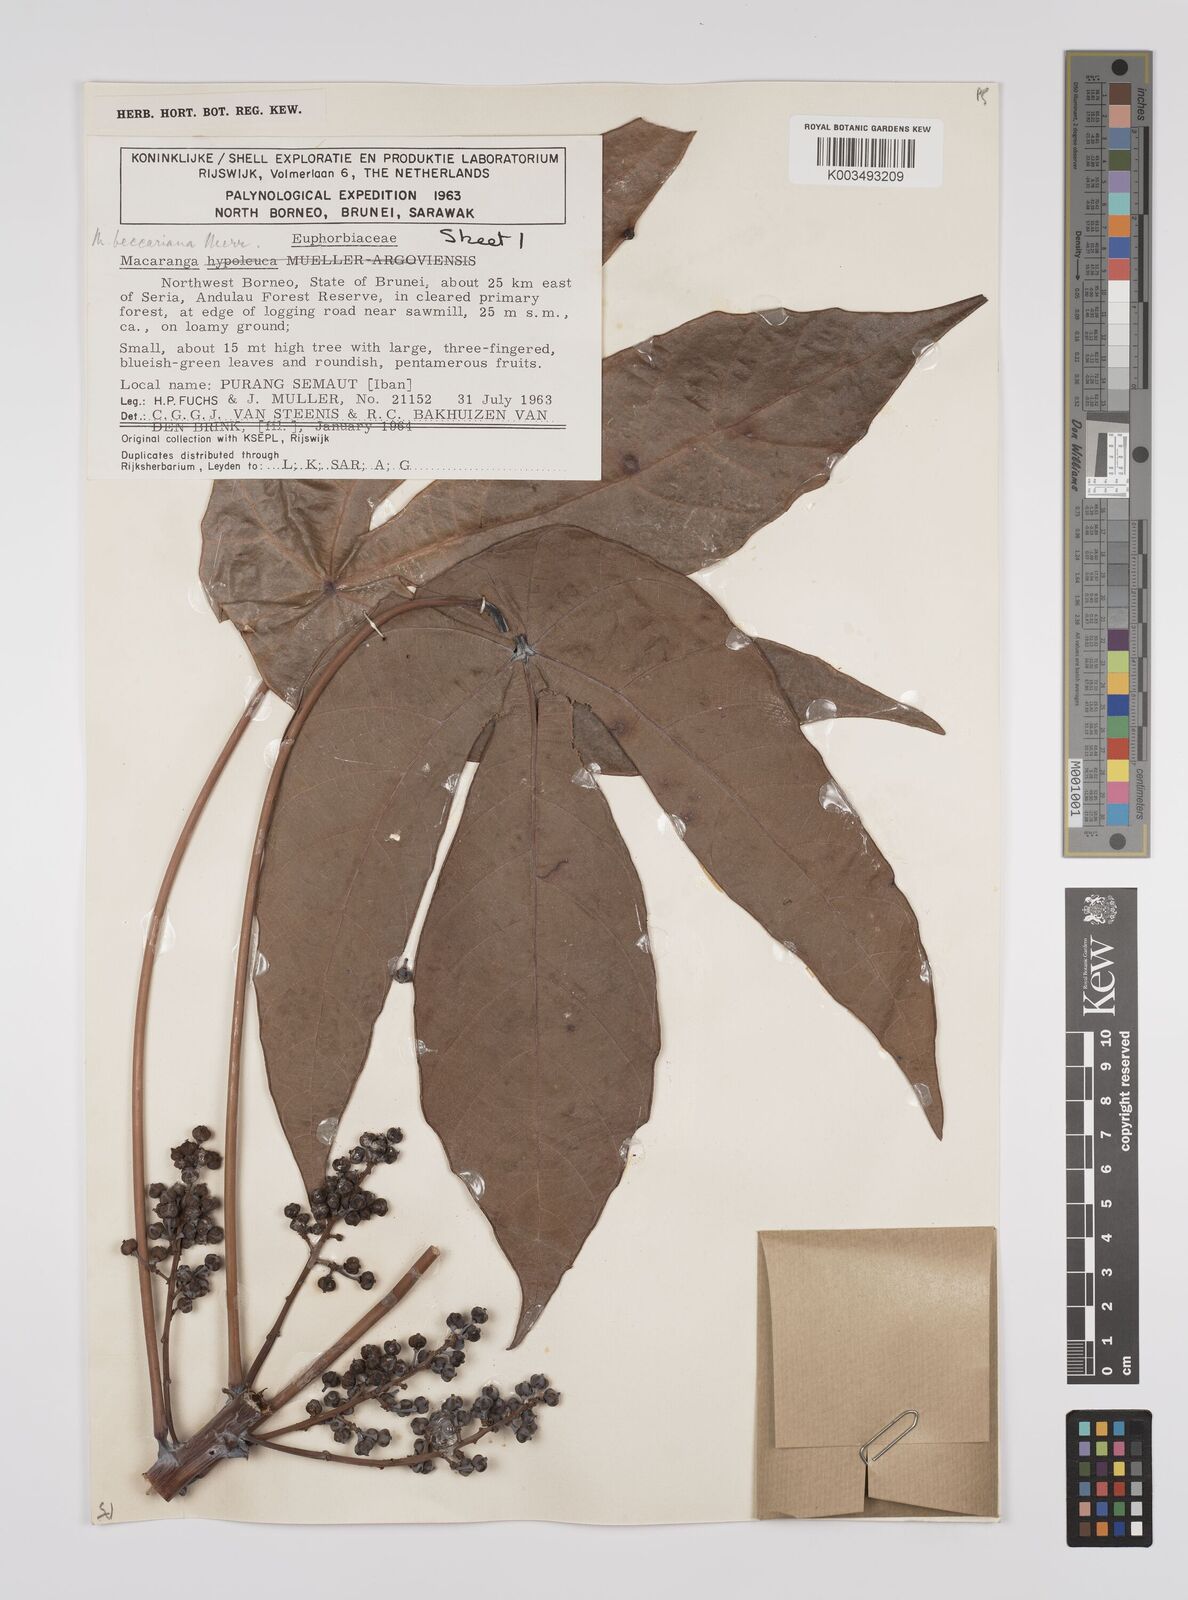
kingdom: Plantae
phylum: Tracheophyta
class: Magnoliopsida
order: Malpighiales
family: Euphorbiaceae
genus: Macaranga
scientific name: Macaranga beccariana
